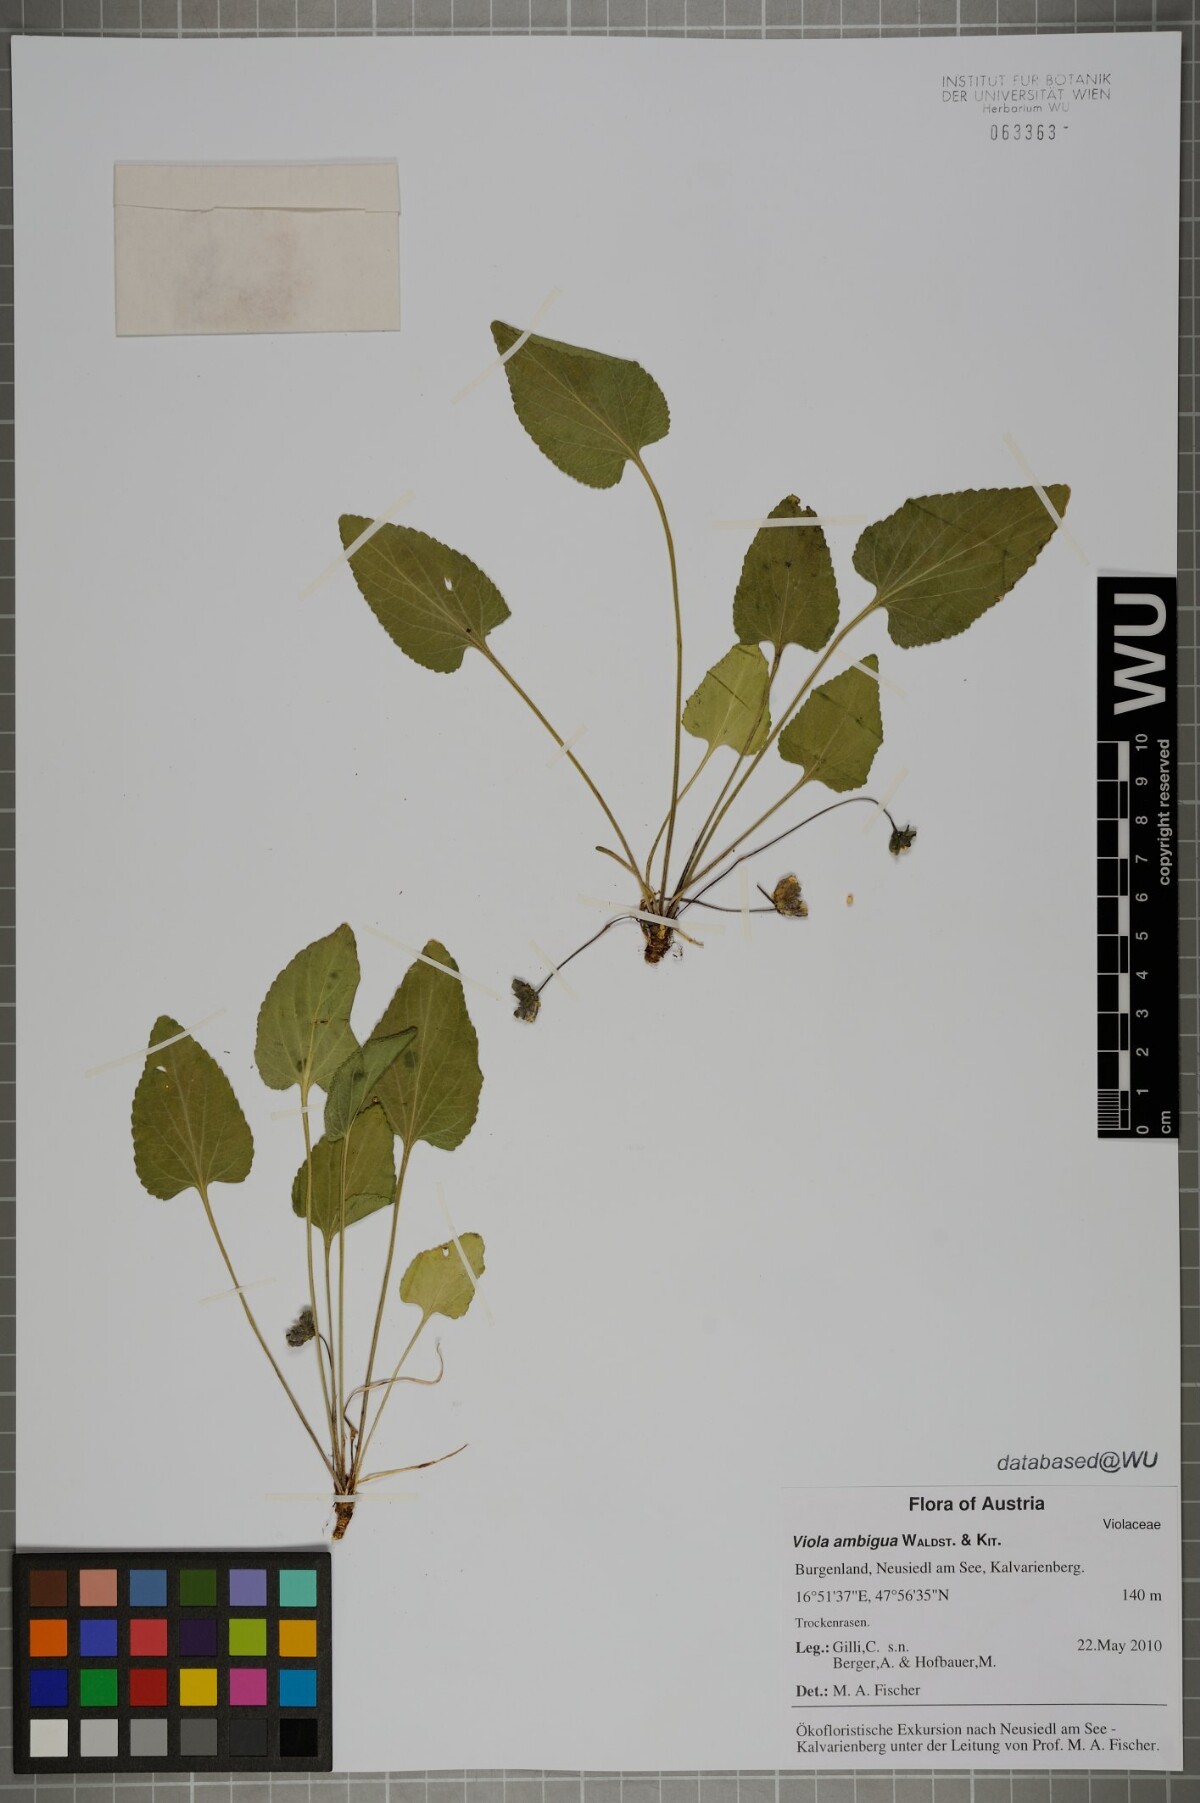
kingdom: Plantae
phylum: Tracheophyta
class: Magnoliopsida
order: Malpighiales
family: Violaceae
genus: Viola
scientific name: Viola ambigua
